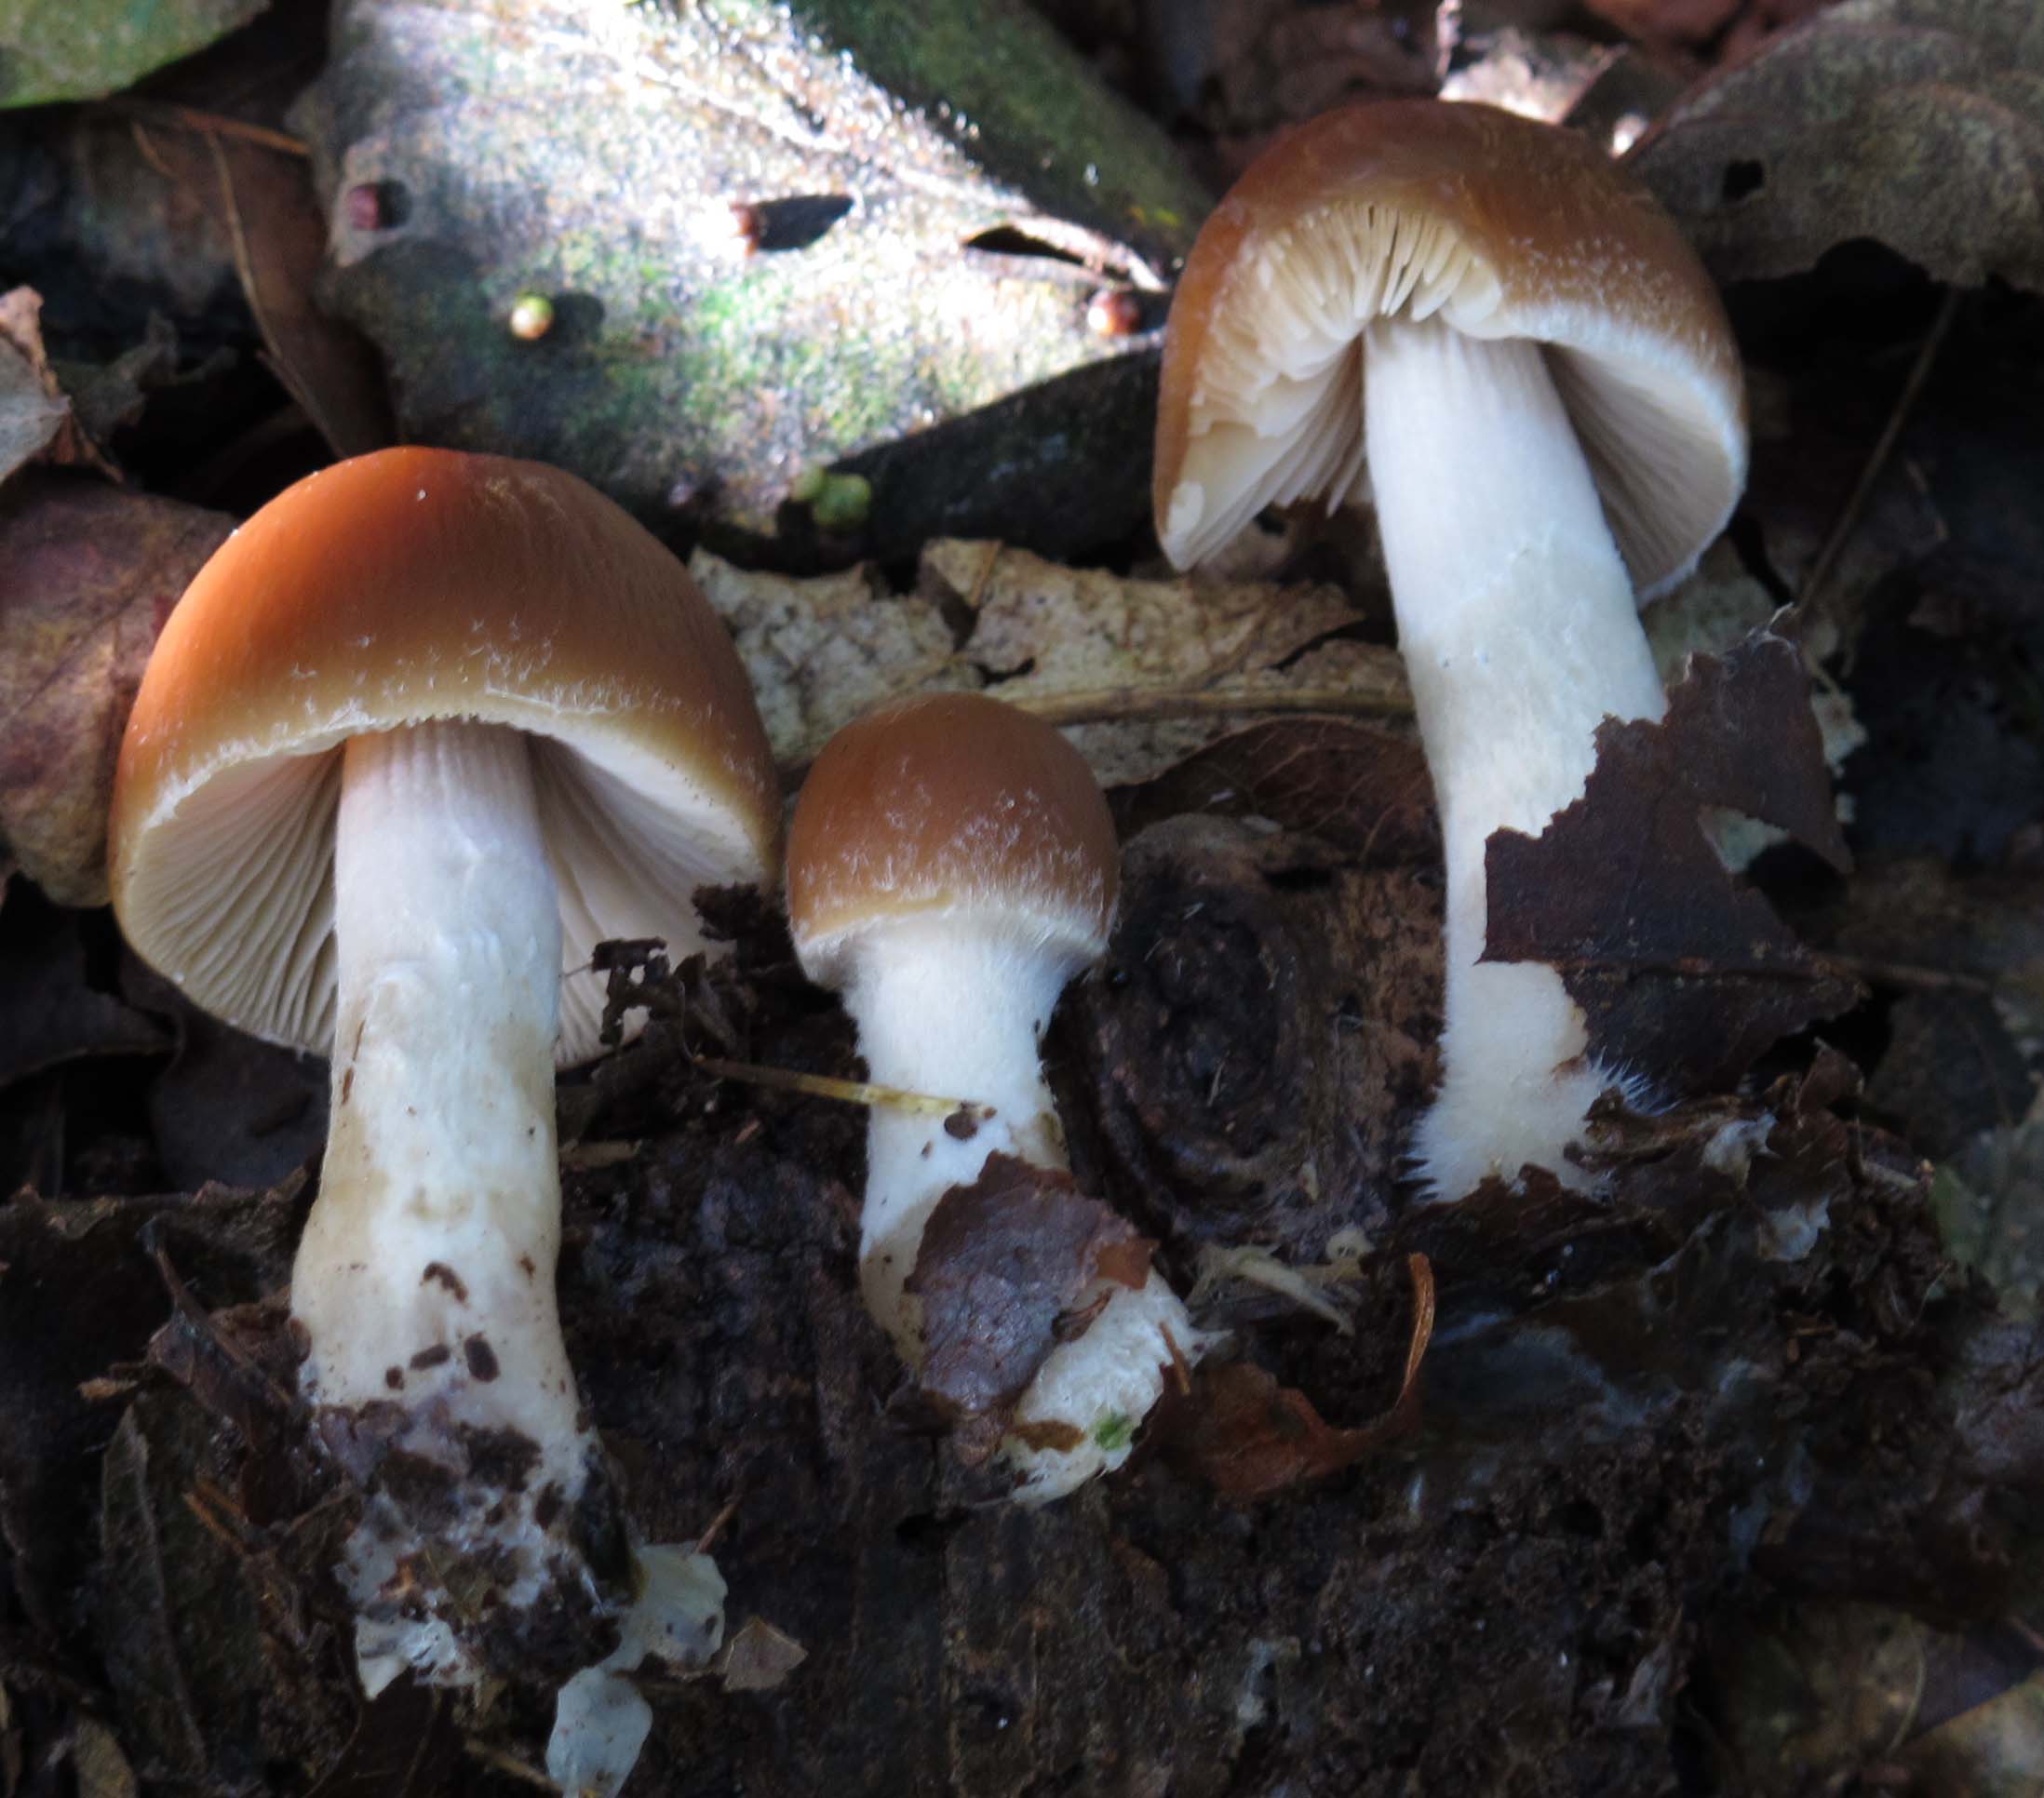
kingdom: Fungi
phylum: Basidiomycota
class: Agaricomycetes
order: Agaricales
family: Psathyrellaceae
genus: Psathyrella
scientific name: Psathyrella fagetophila
